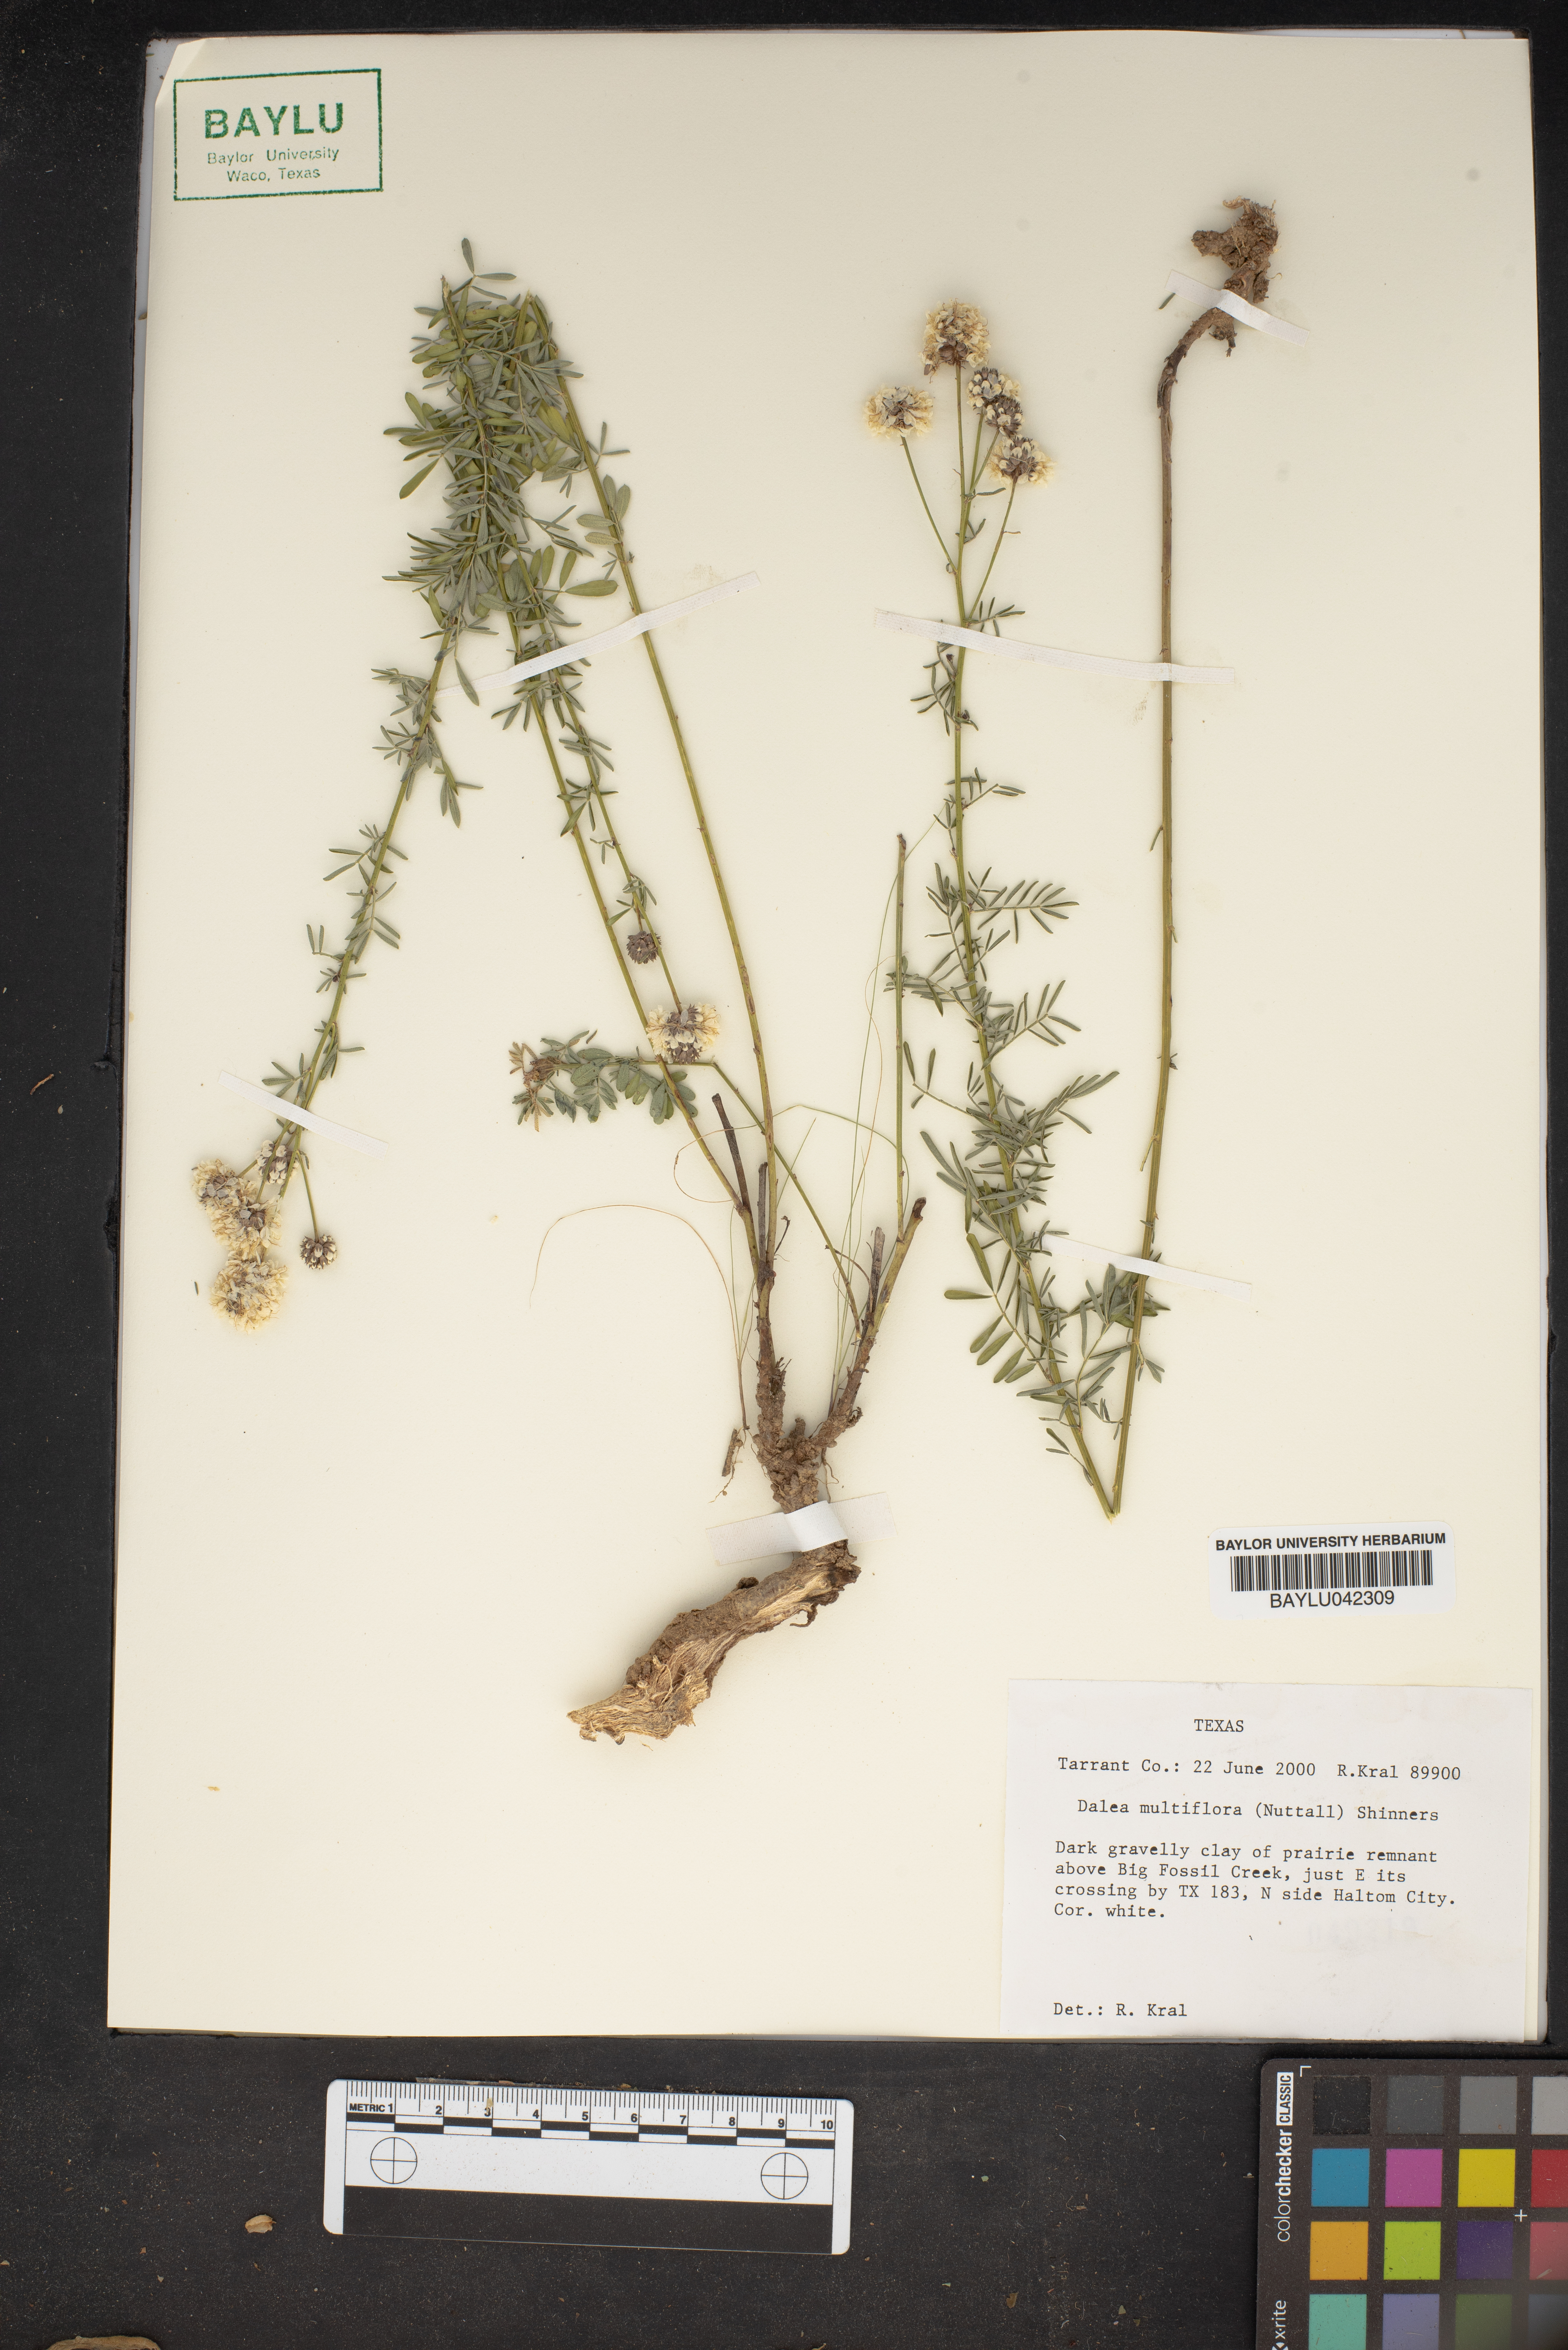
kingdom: Plantae
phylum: Tracheophyta
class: Magnoliopsida
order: Fabales
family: Fabaceae
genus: Dalea
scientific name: Dalea multiflora
